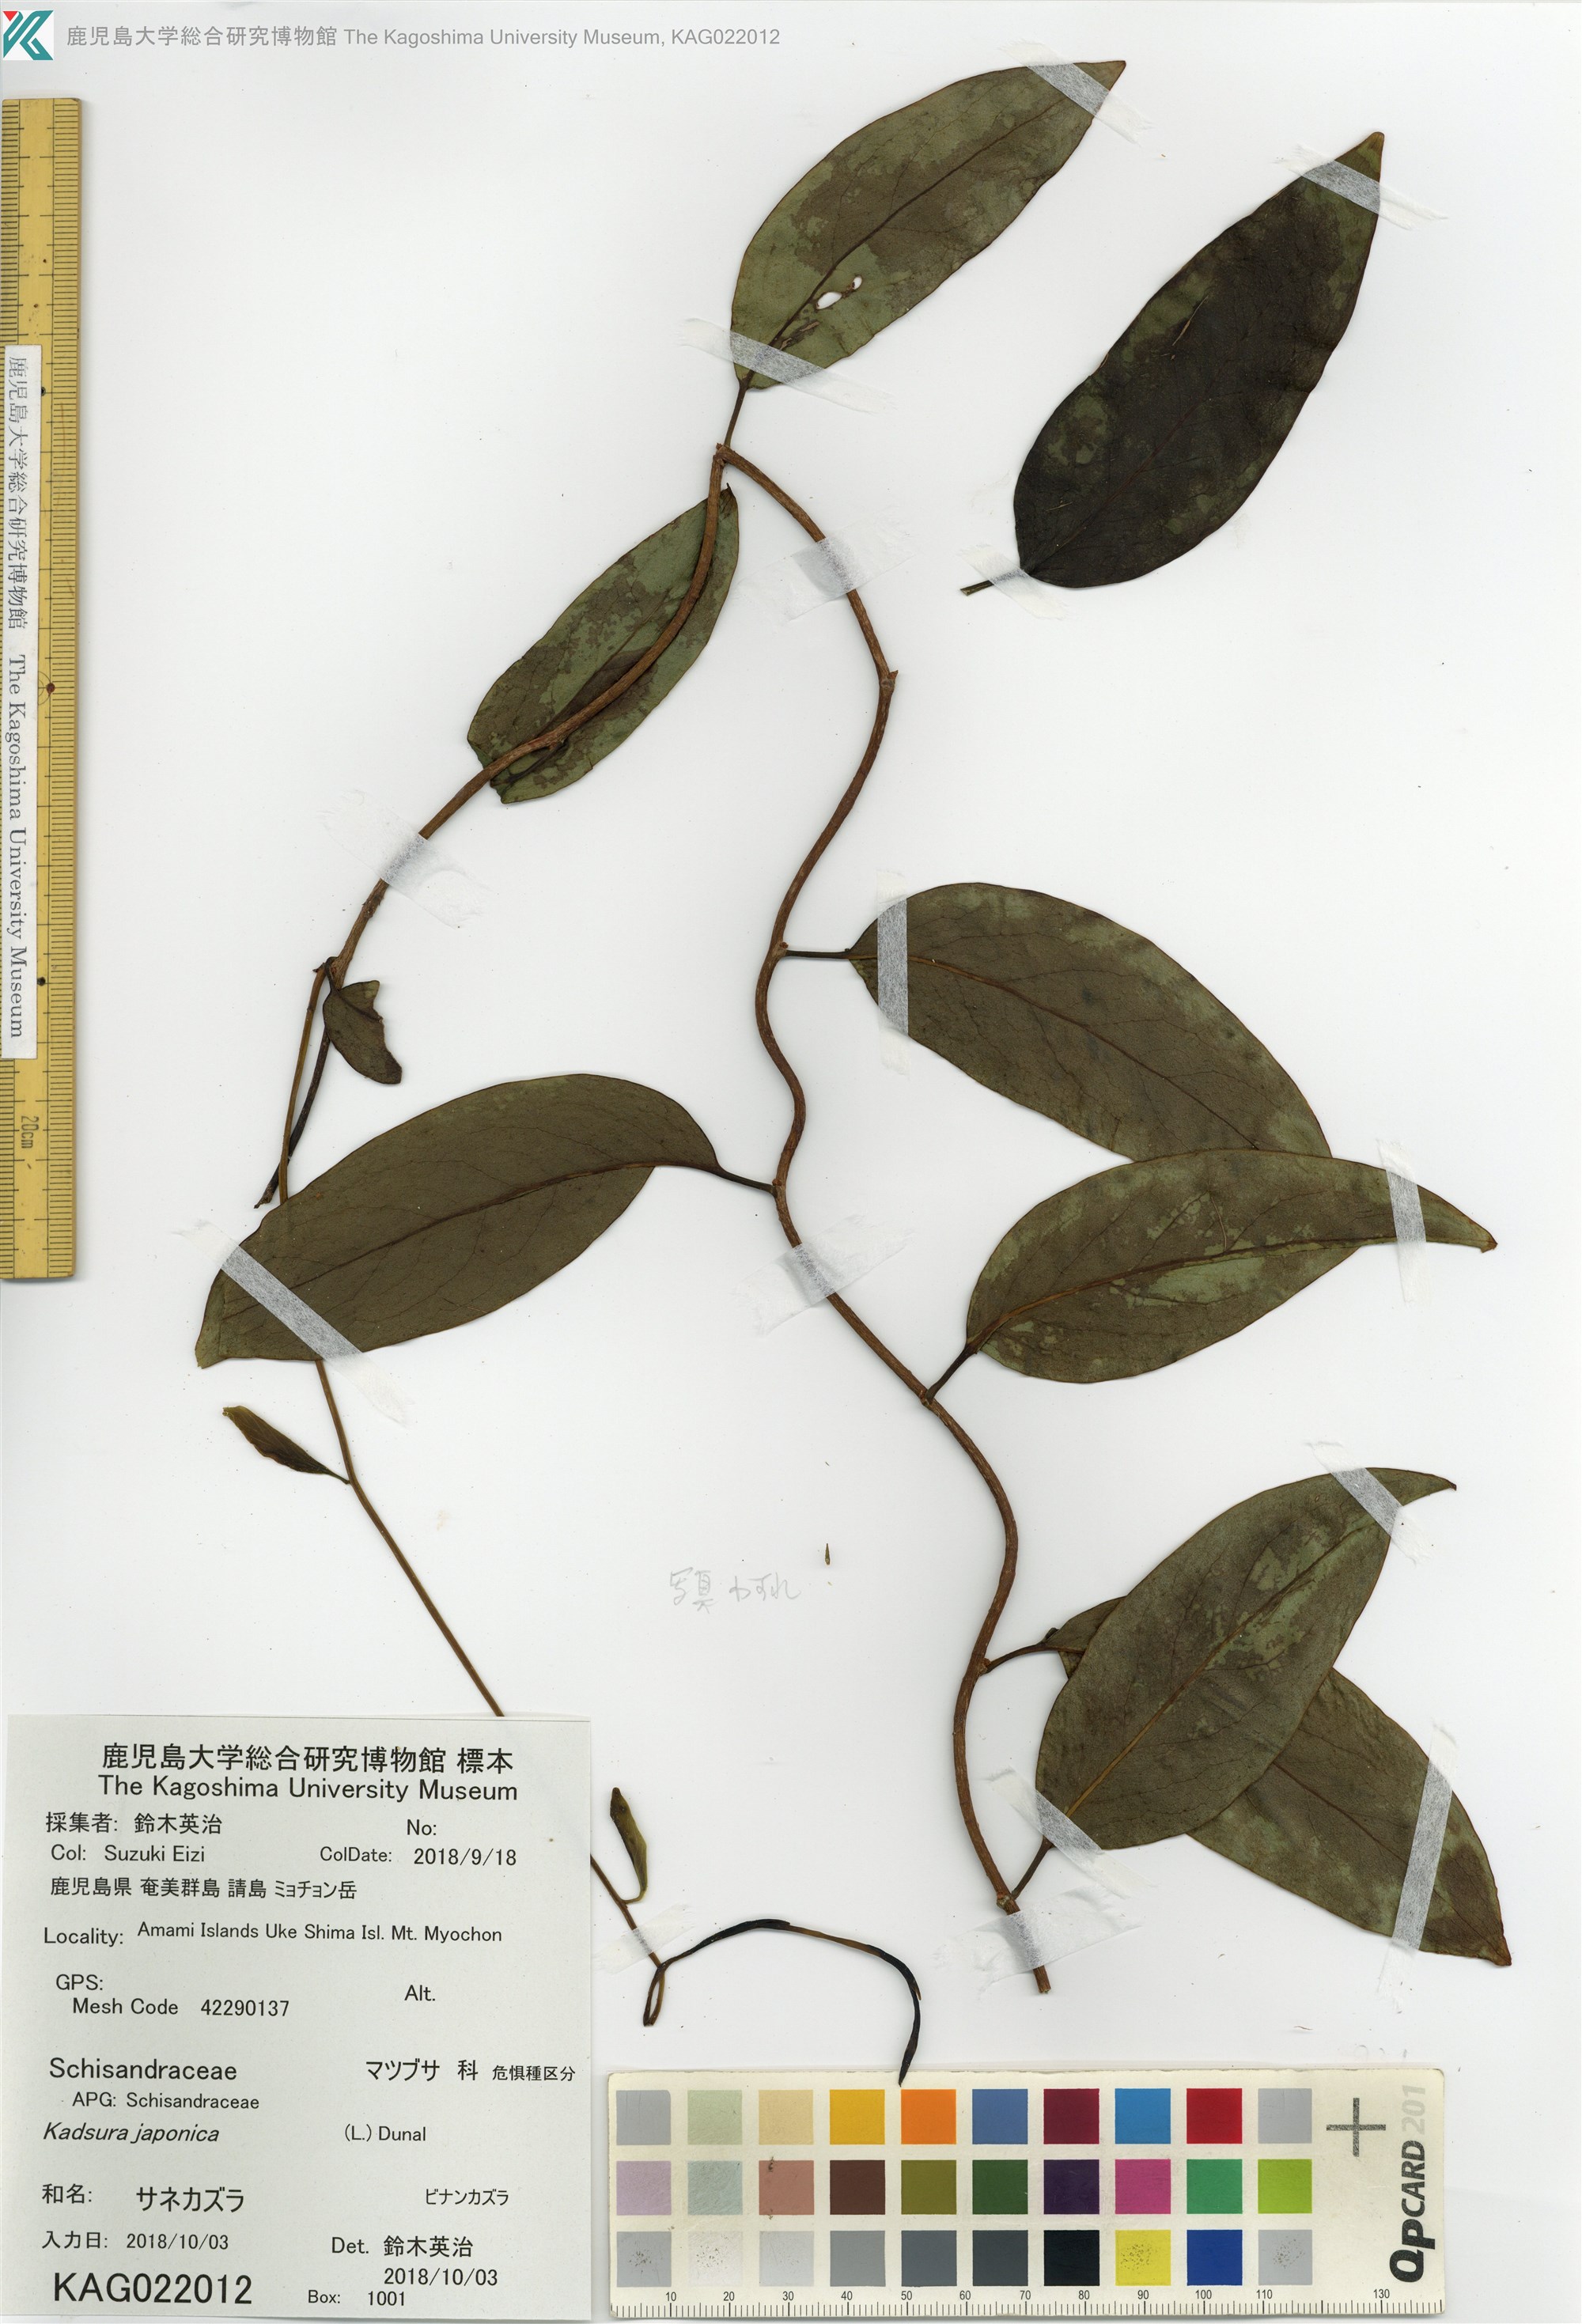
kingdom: Plantae
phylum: Tracheophyta
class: Magnoliopsida
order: Austrobaileyales
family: Schisandraceae
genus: Kadsura
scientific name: Kadsura japonica
